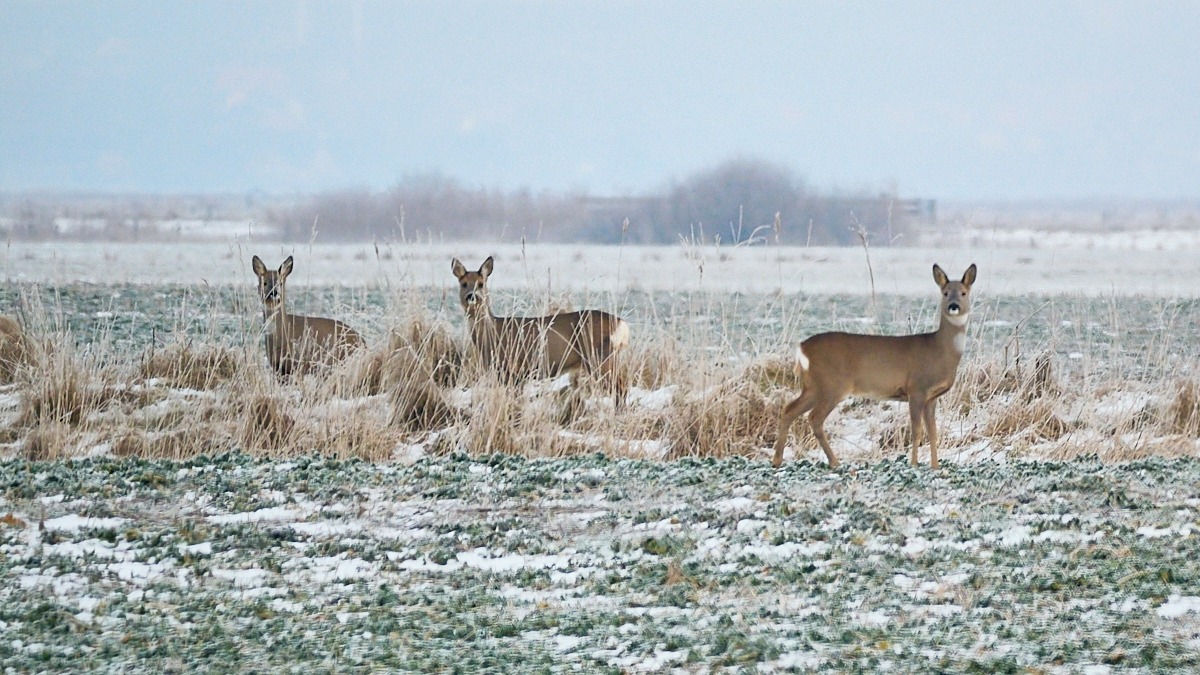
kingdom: Animalia
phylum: Chordata
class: Mammalia
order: Artiodactyla
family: Cervidae
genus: Capreolus
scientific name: Capreolus capreolus
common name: Rådyr
